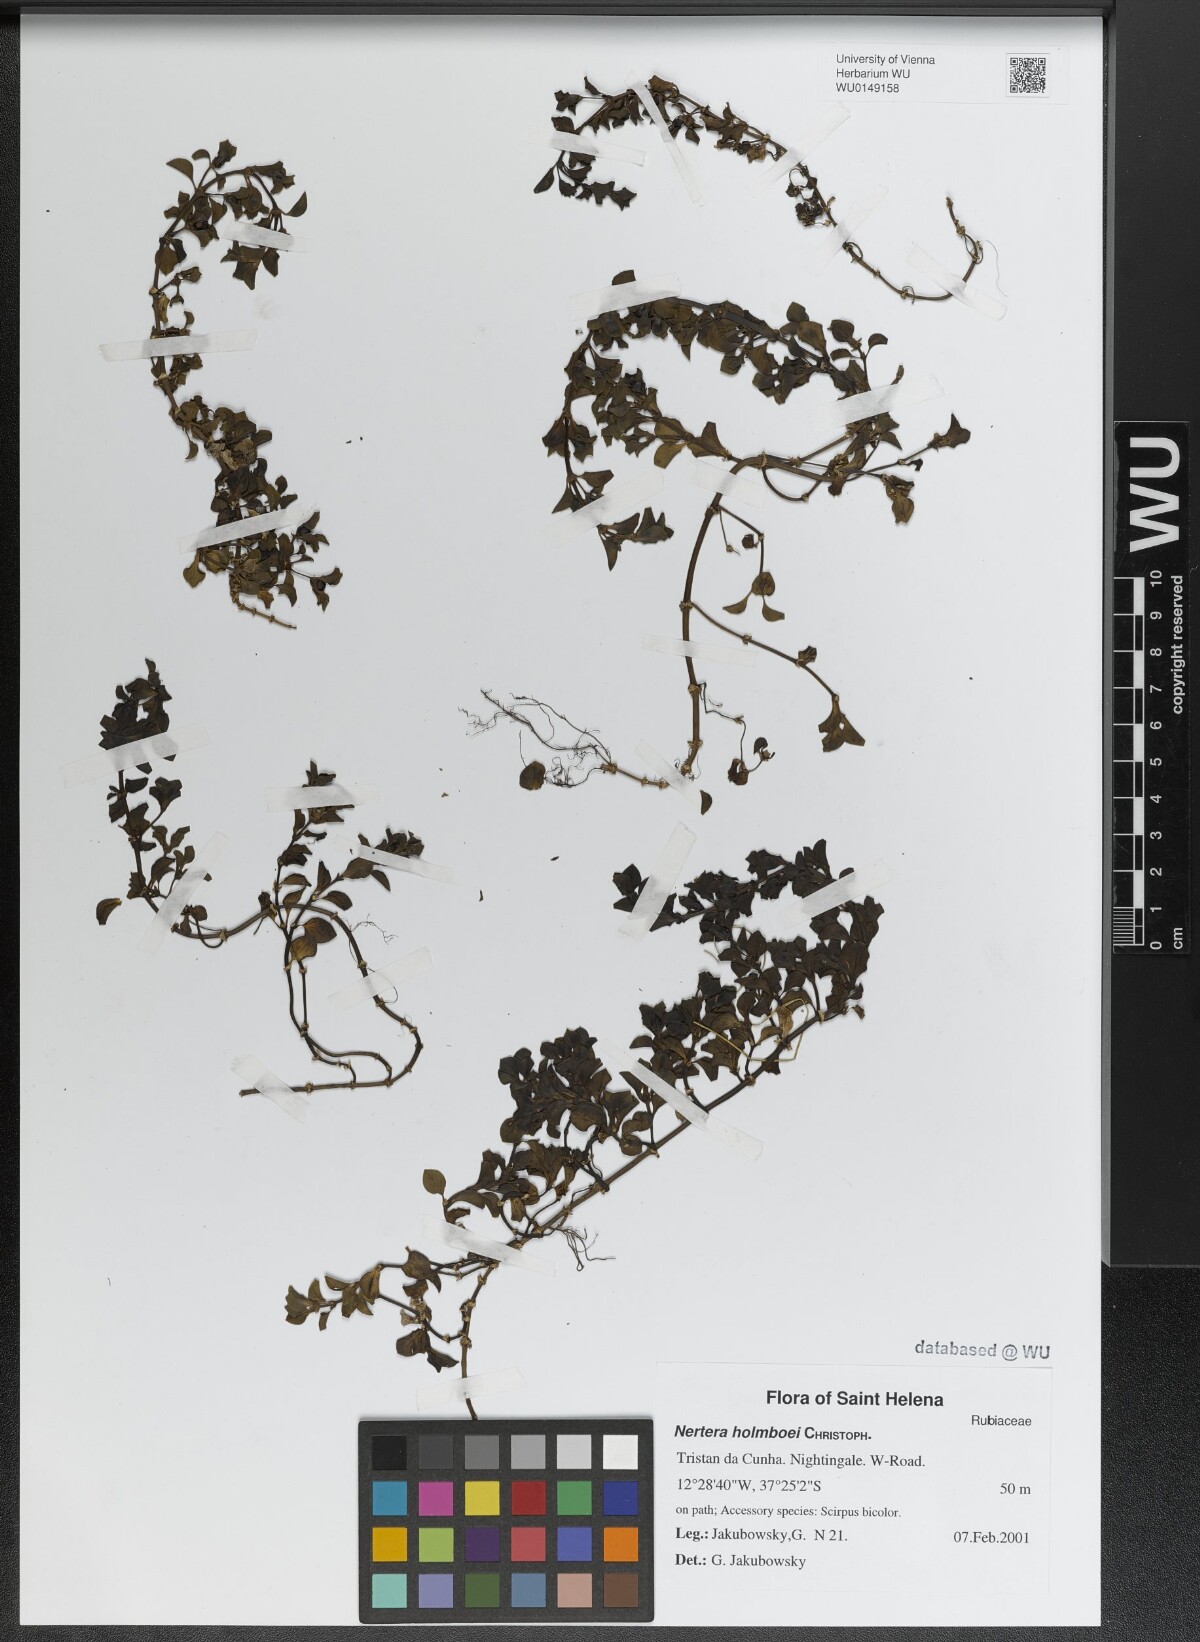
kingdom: Plantae
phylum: Tracheophyta
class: Magnoliopsida
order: Gentianales
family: Rubiaceae
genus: Nertera
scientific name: Nertera holmboei
